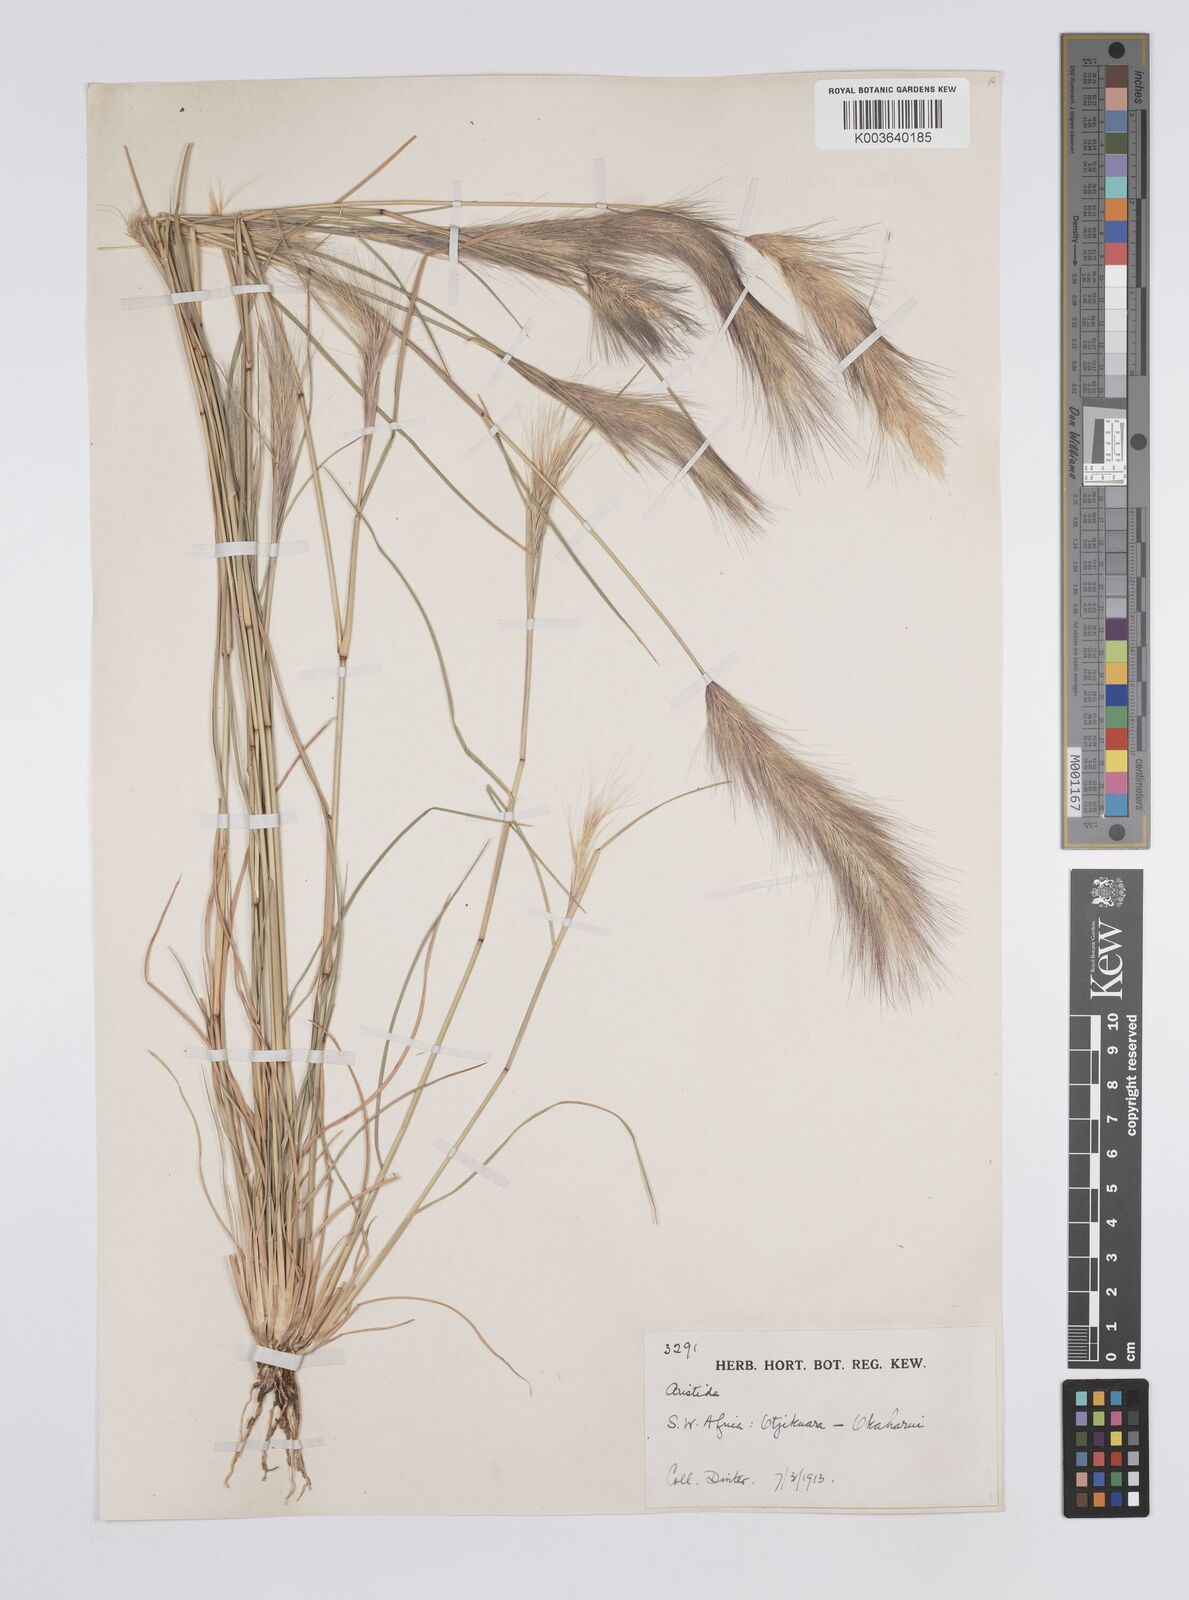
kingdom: Plantae
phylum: Tracheophyta
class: Liliopsida
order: Poales
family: Poaceae
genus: Aristida
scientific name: Aristida congesta
